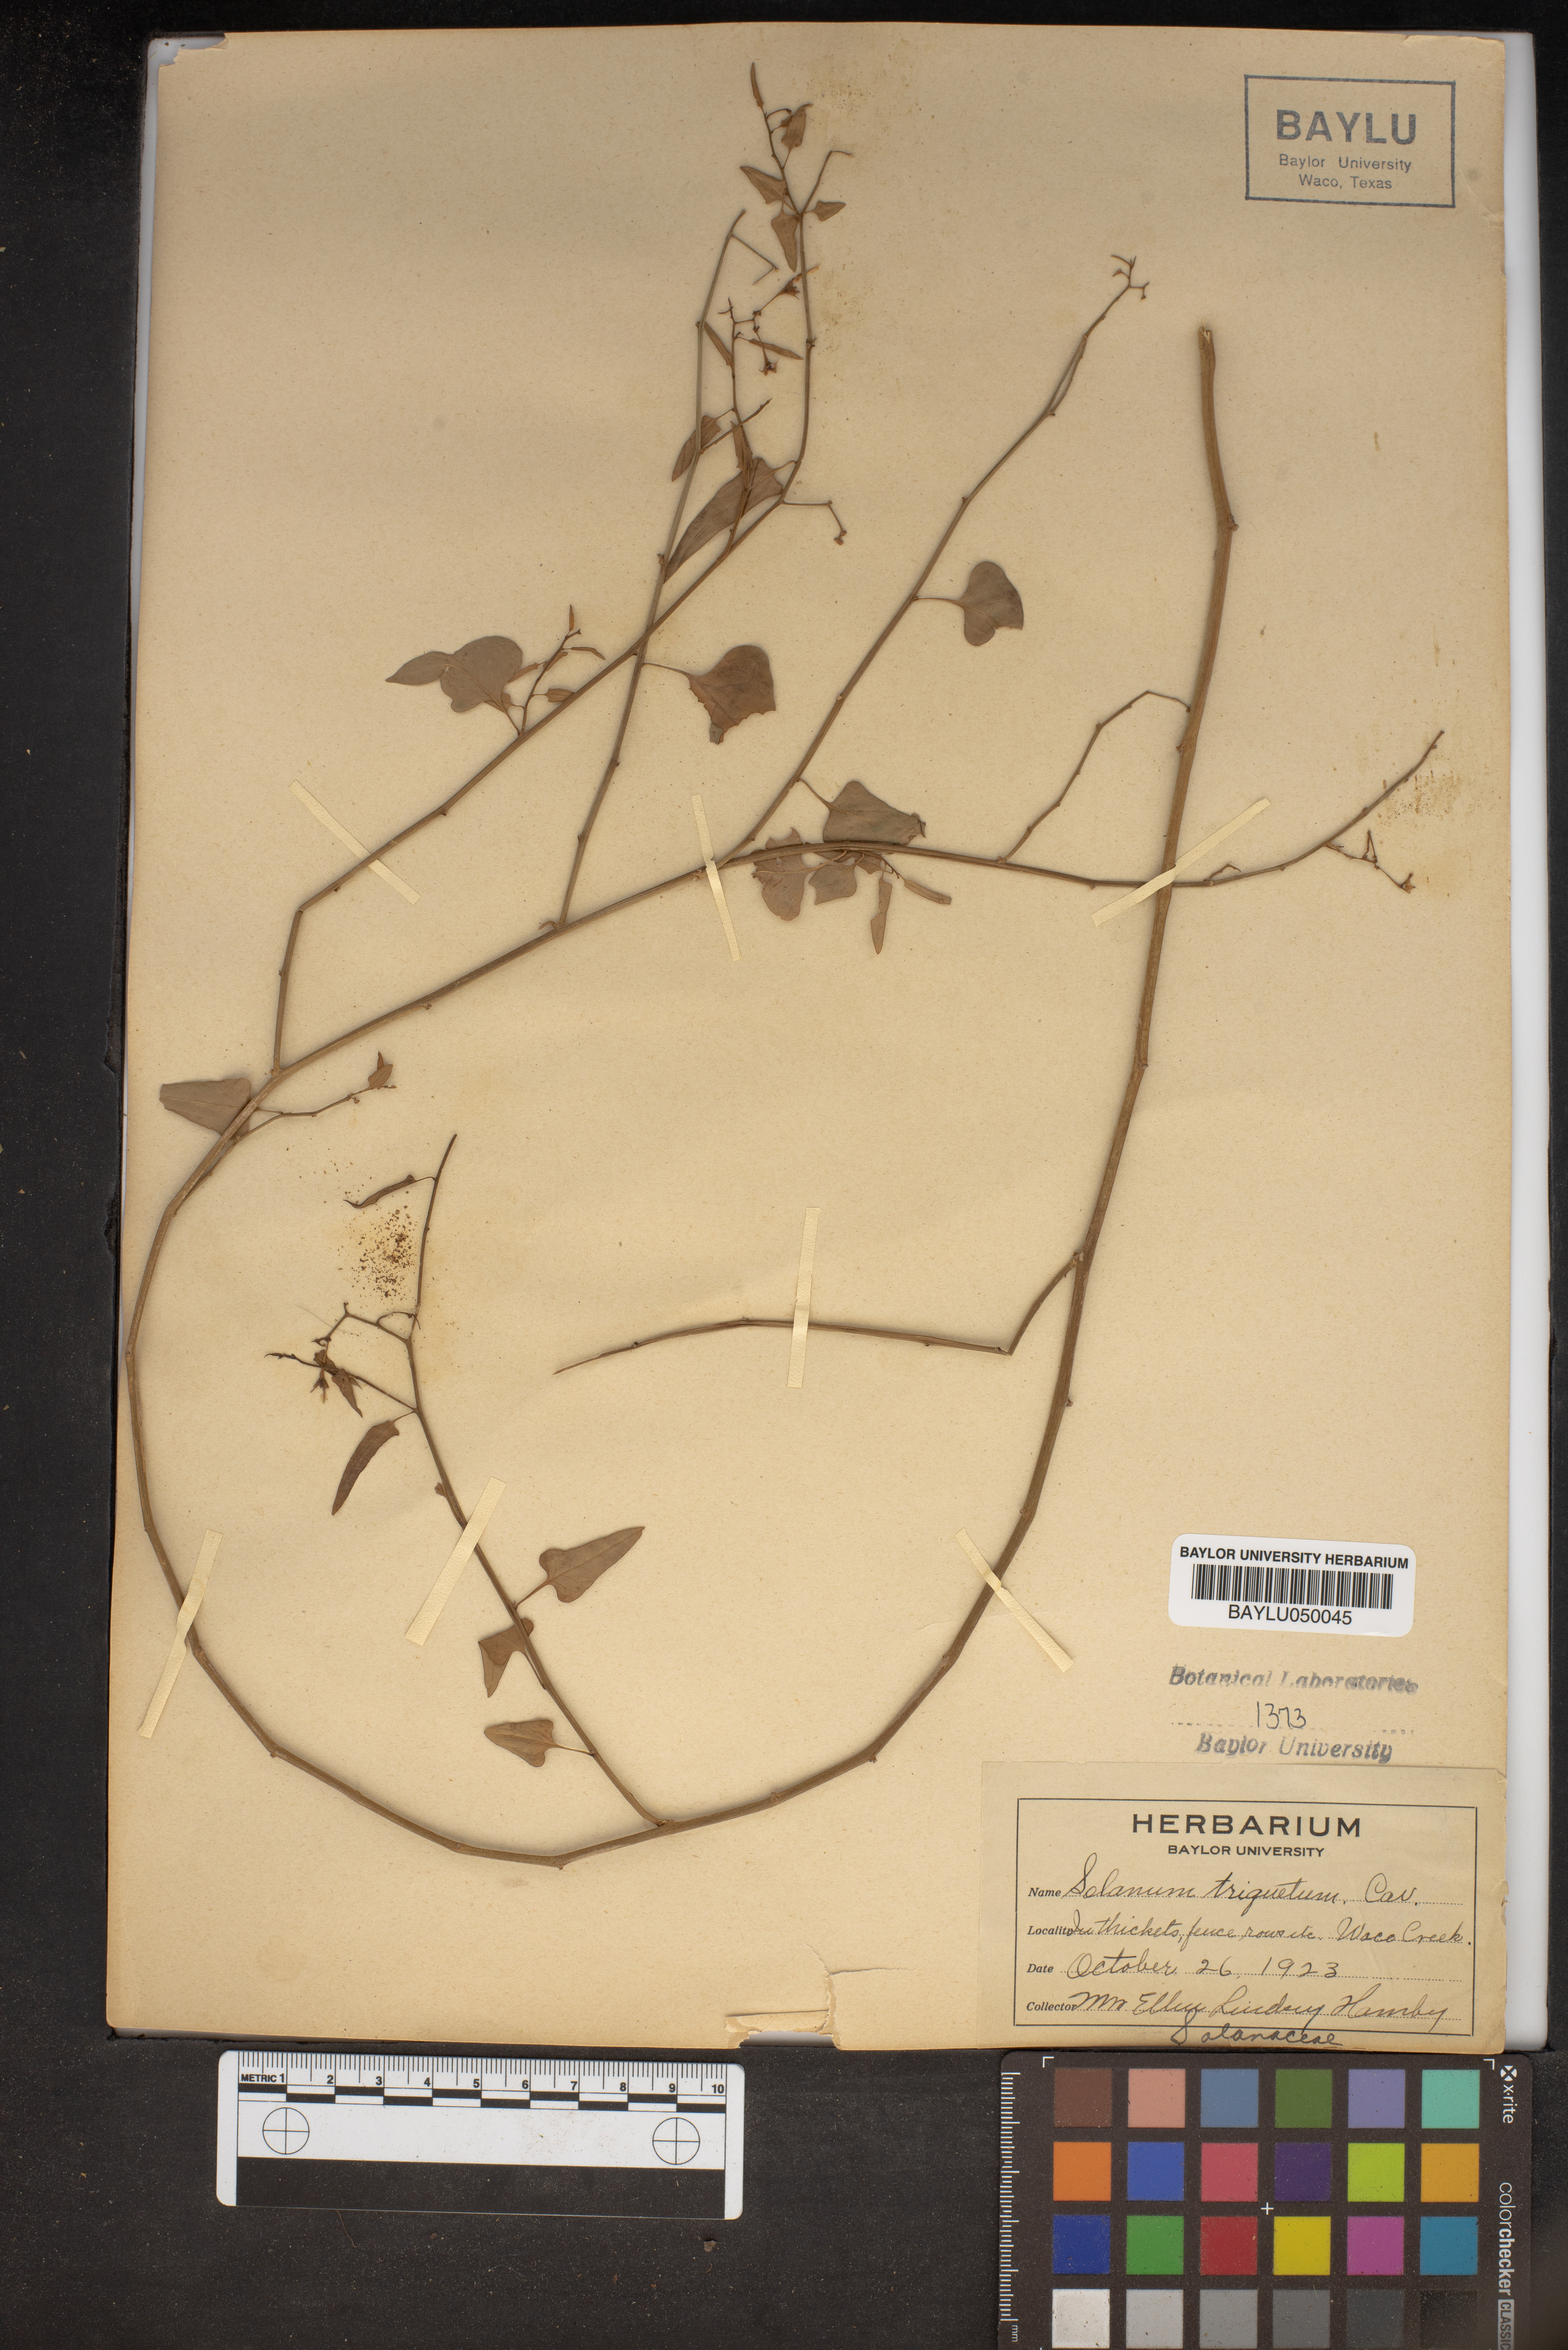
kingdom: Plantae
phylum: Tracheophyta
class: Magnoliopsida
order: Solanales
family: Solanaceae
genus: Solanum
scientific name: Solanum triquetrum
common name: Texas nightshade
